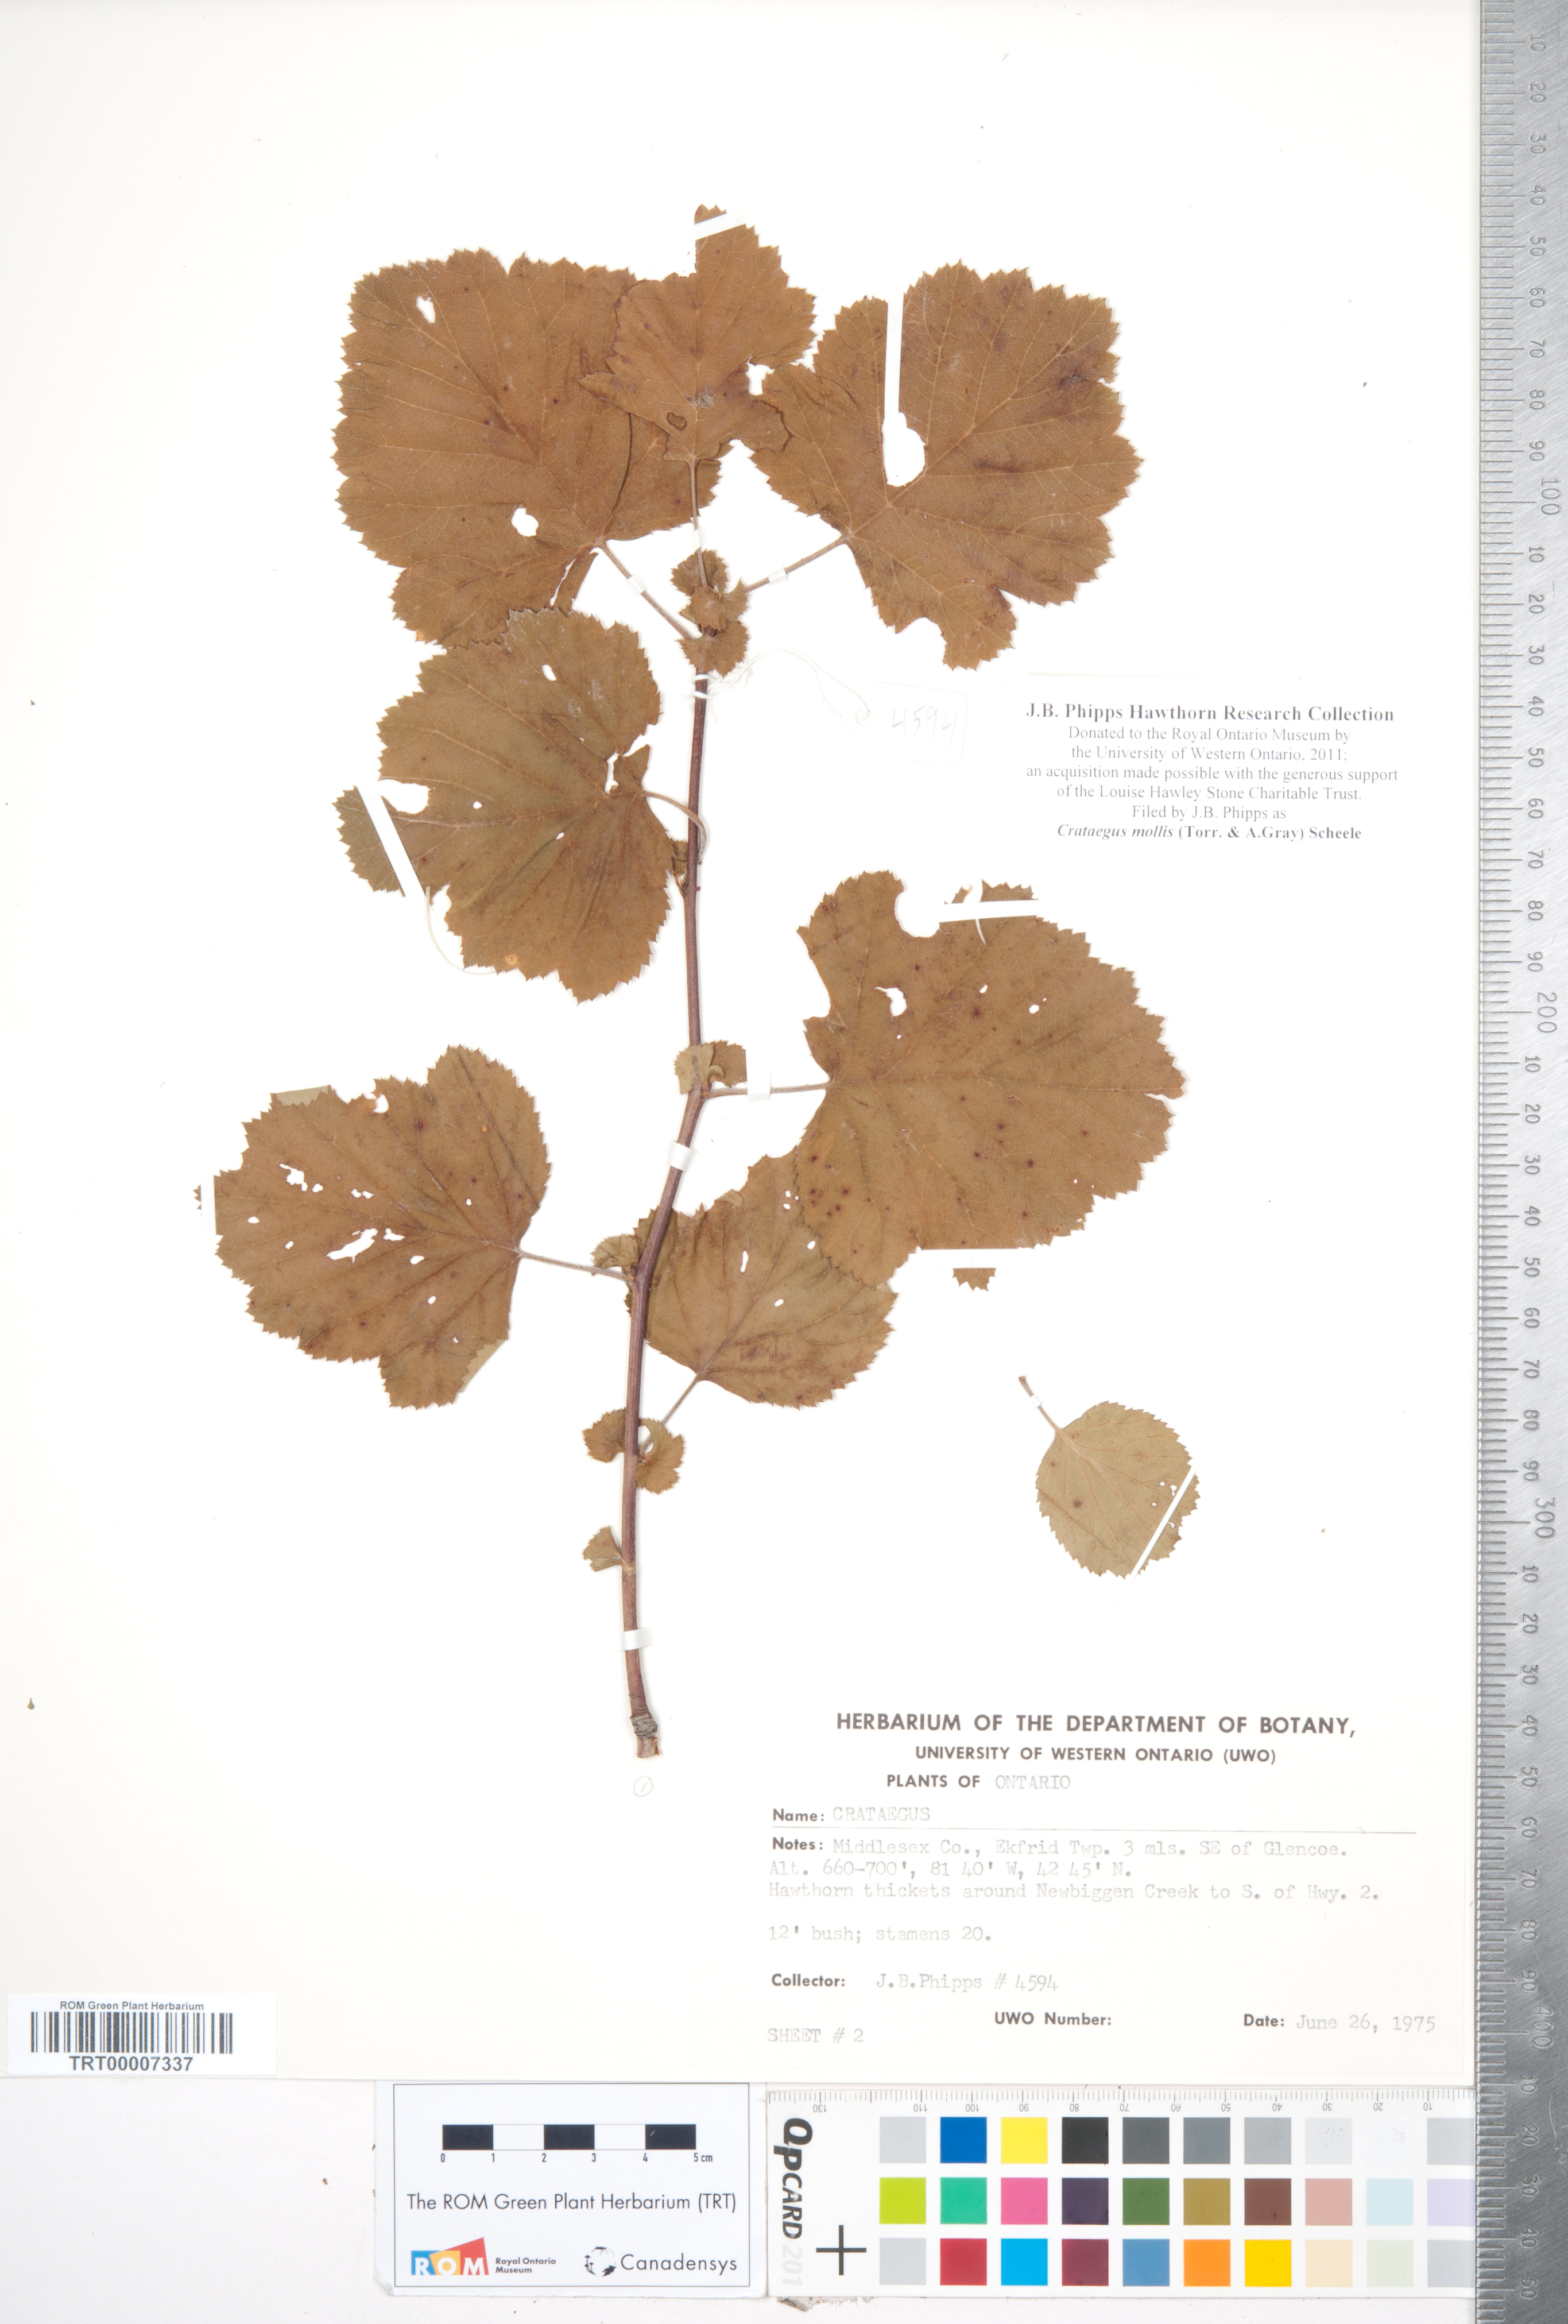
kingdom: Plantae
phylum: Tracheophyta
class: Magnoliopsida
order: Rosales
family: Rosaceae
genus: Crataegus
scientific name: Crataegus mollis
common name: Downy hawthorn
